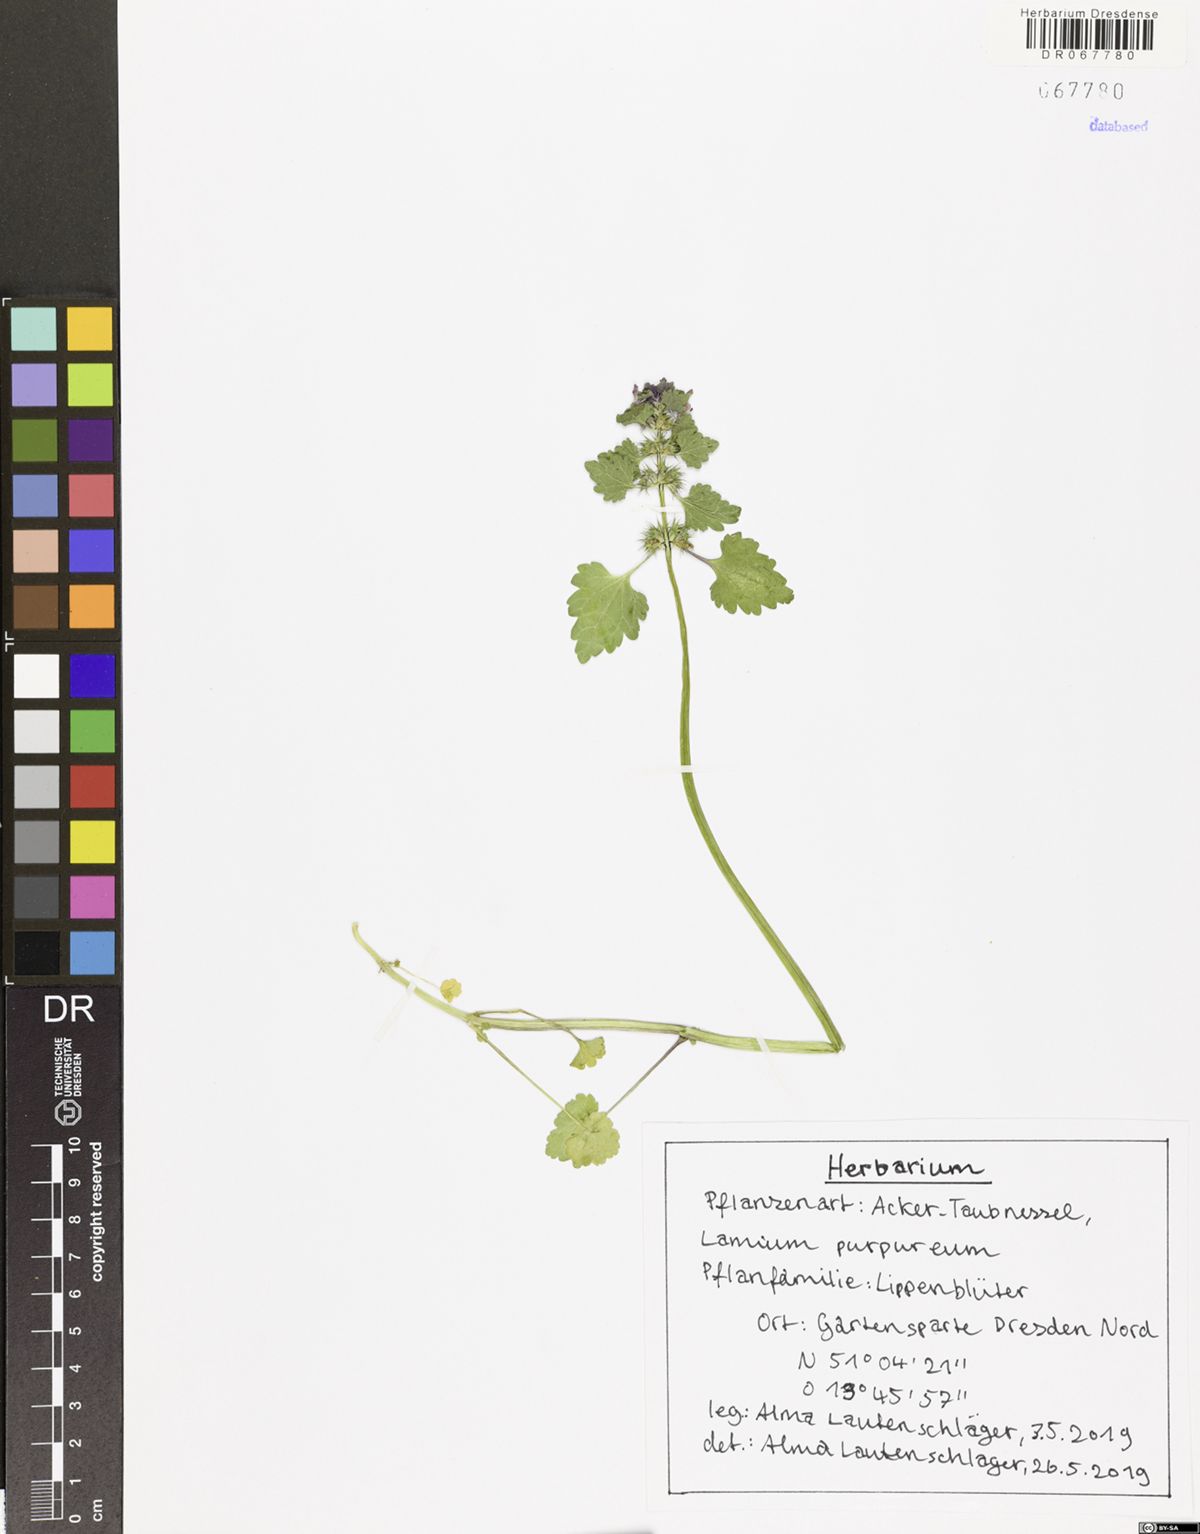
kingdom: Plantae
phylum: Tracheophyta
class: Magnoliopsida
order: Lamiales
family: Lamiaceae
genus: Lamium
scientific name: Lamium purpureum
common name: Red dead-nettle
